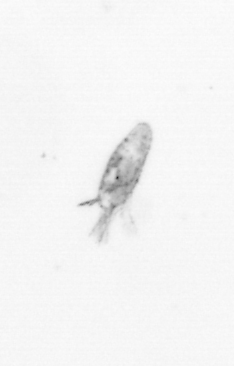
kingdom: Animalia
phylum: Arthropoda
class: Copepoda
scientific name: Copepoda
